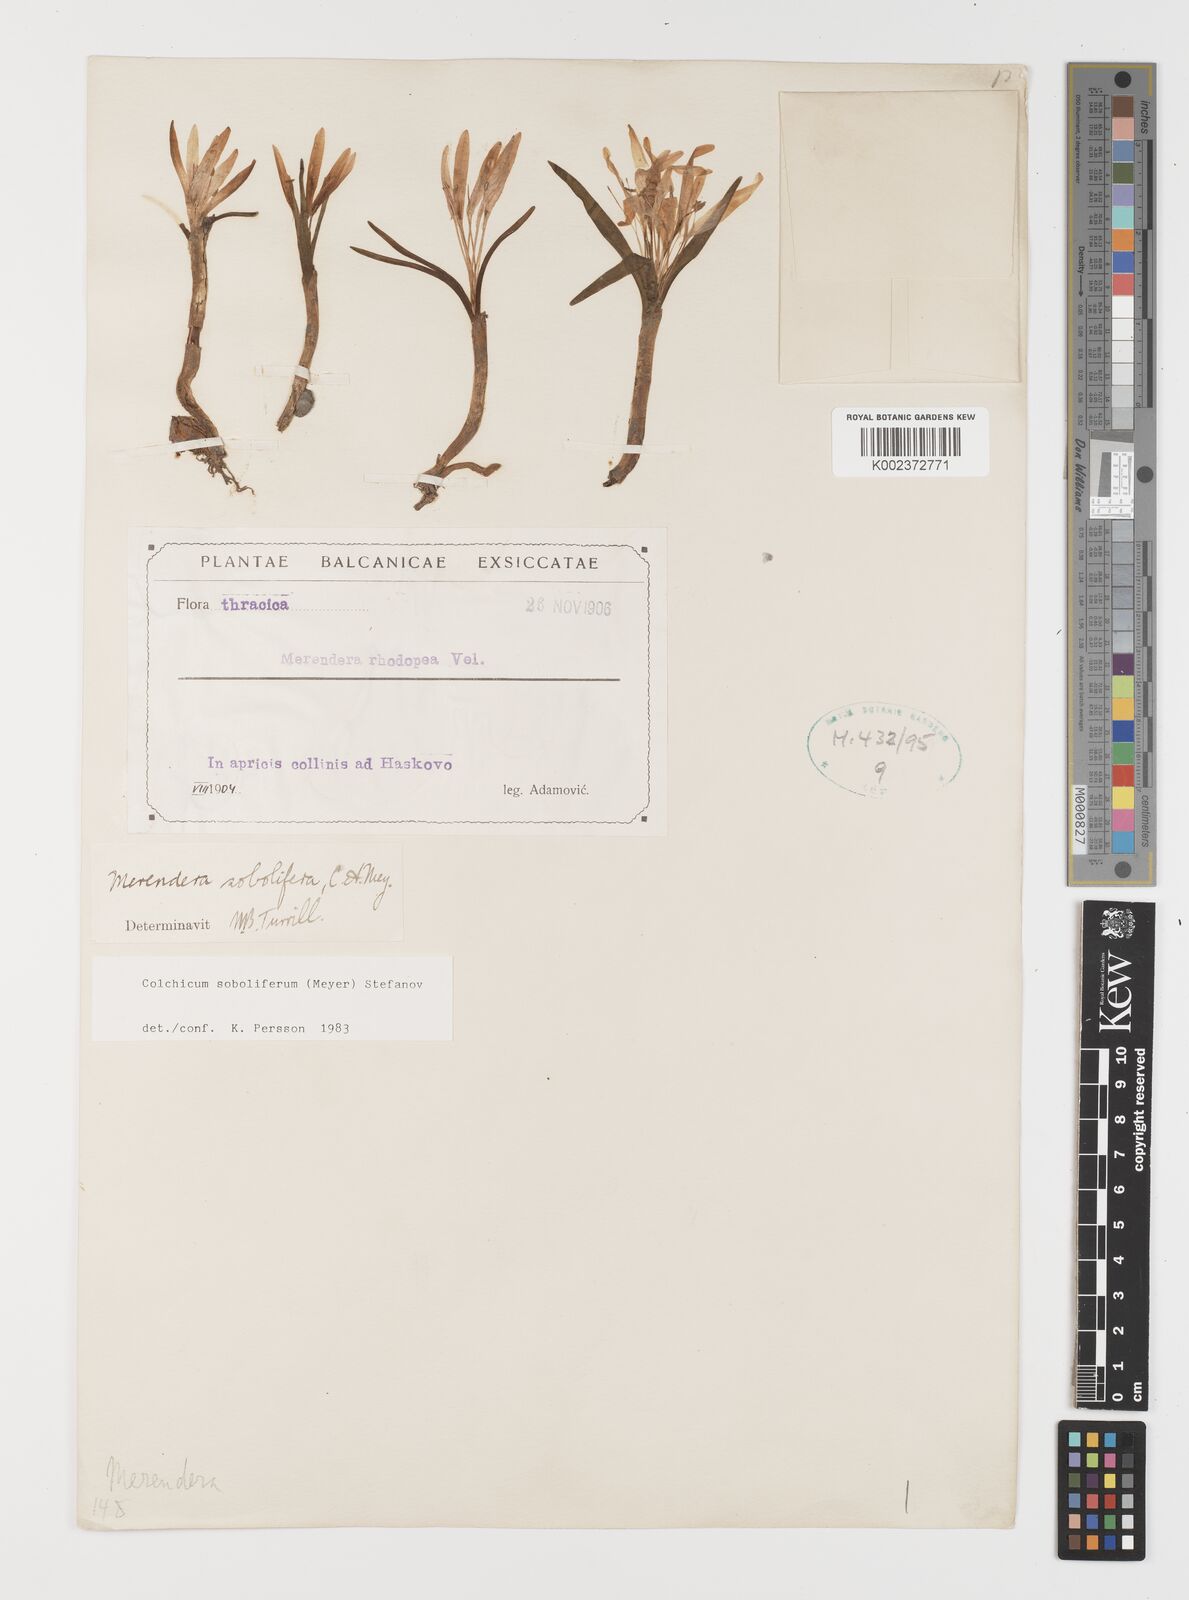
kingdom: Plantae
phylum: Tracheophyta
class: Liliopsida
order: Liliales
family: Colchicaceae
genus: Colchicum
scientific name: Colchicum soboliferum
